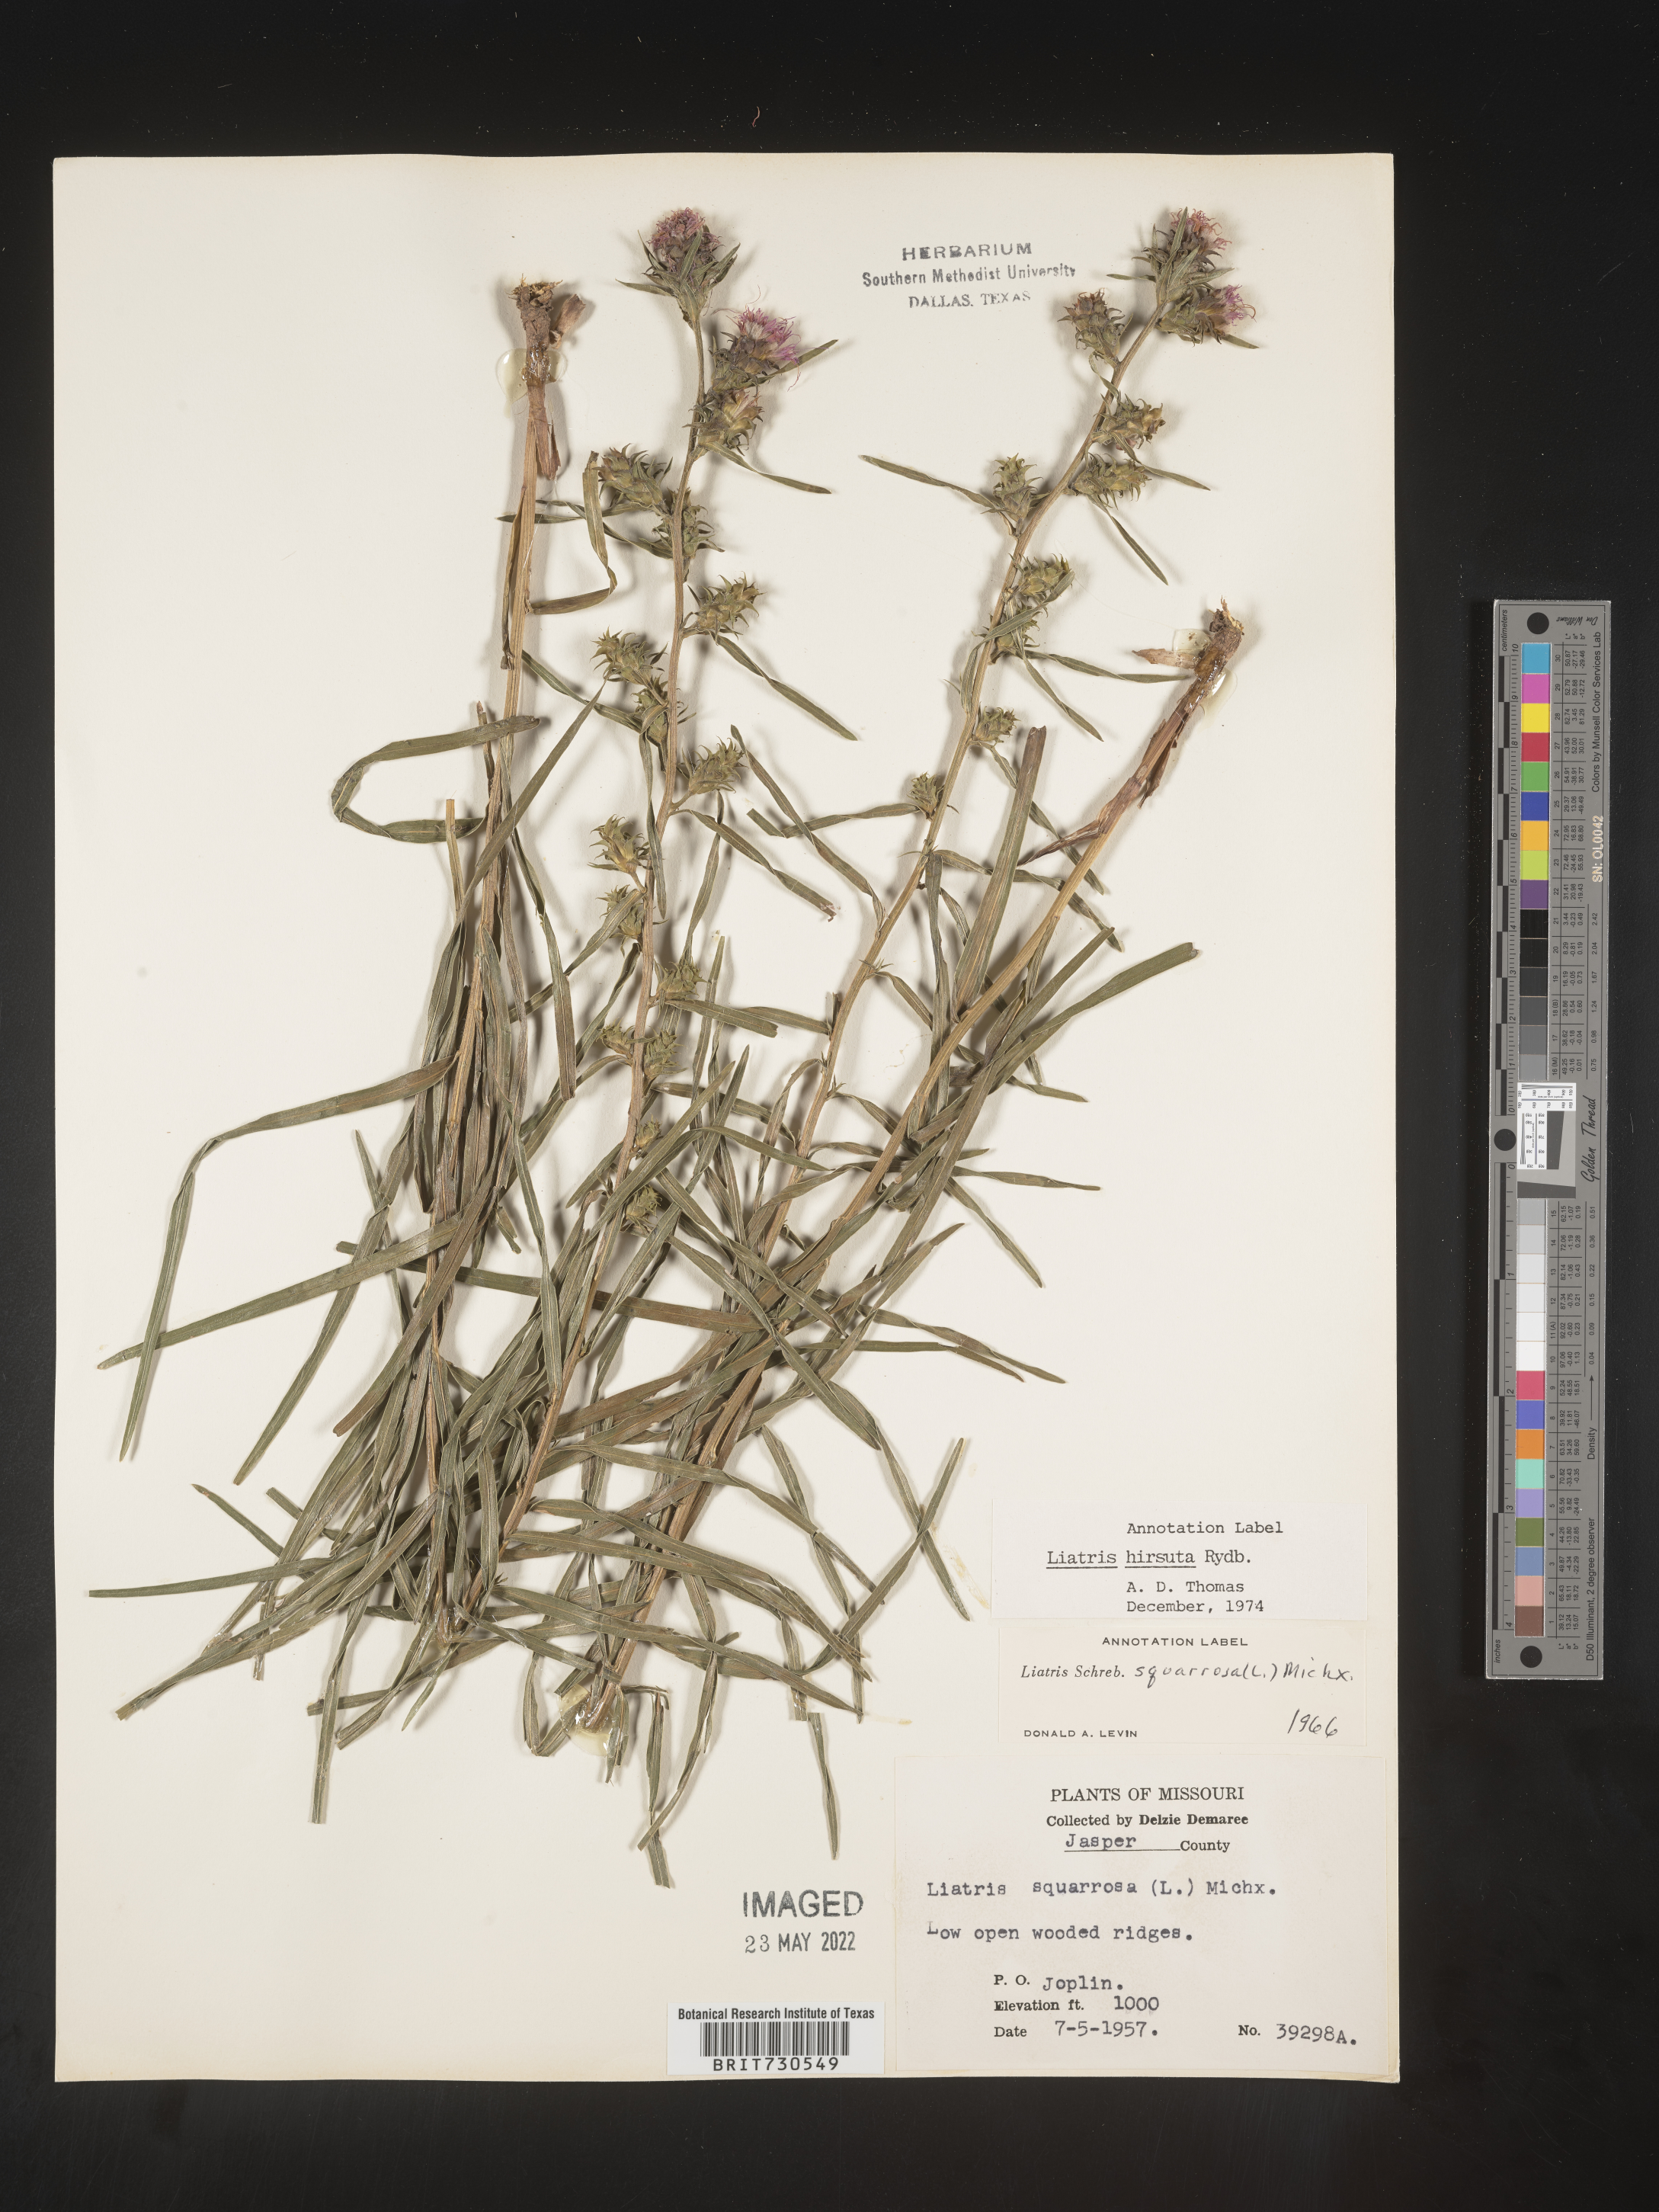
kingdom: Plantae
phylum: Tracheophyta
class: Magnoliopsida
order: Asterales
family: Asteraceae
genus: Liatris
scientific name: Liatris hirsuta
